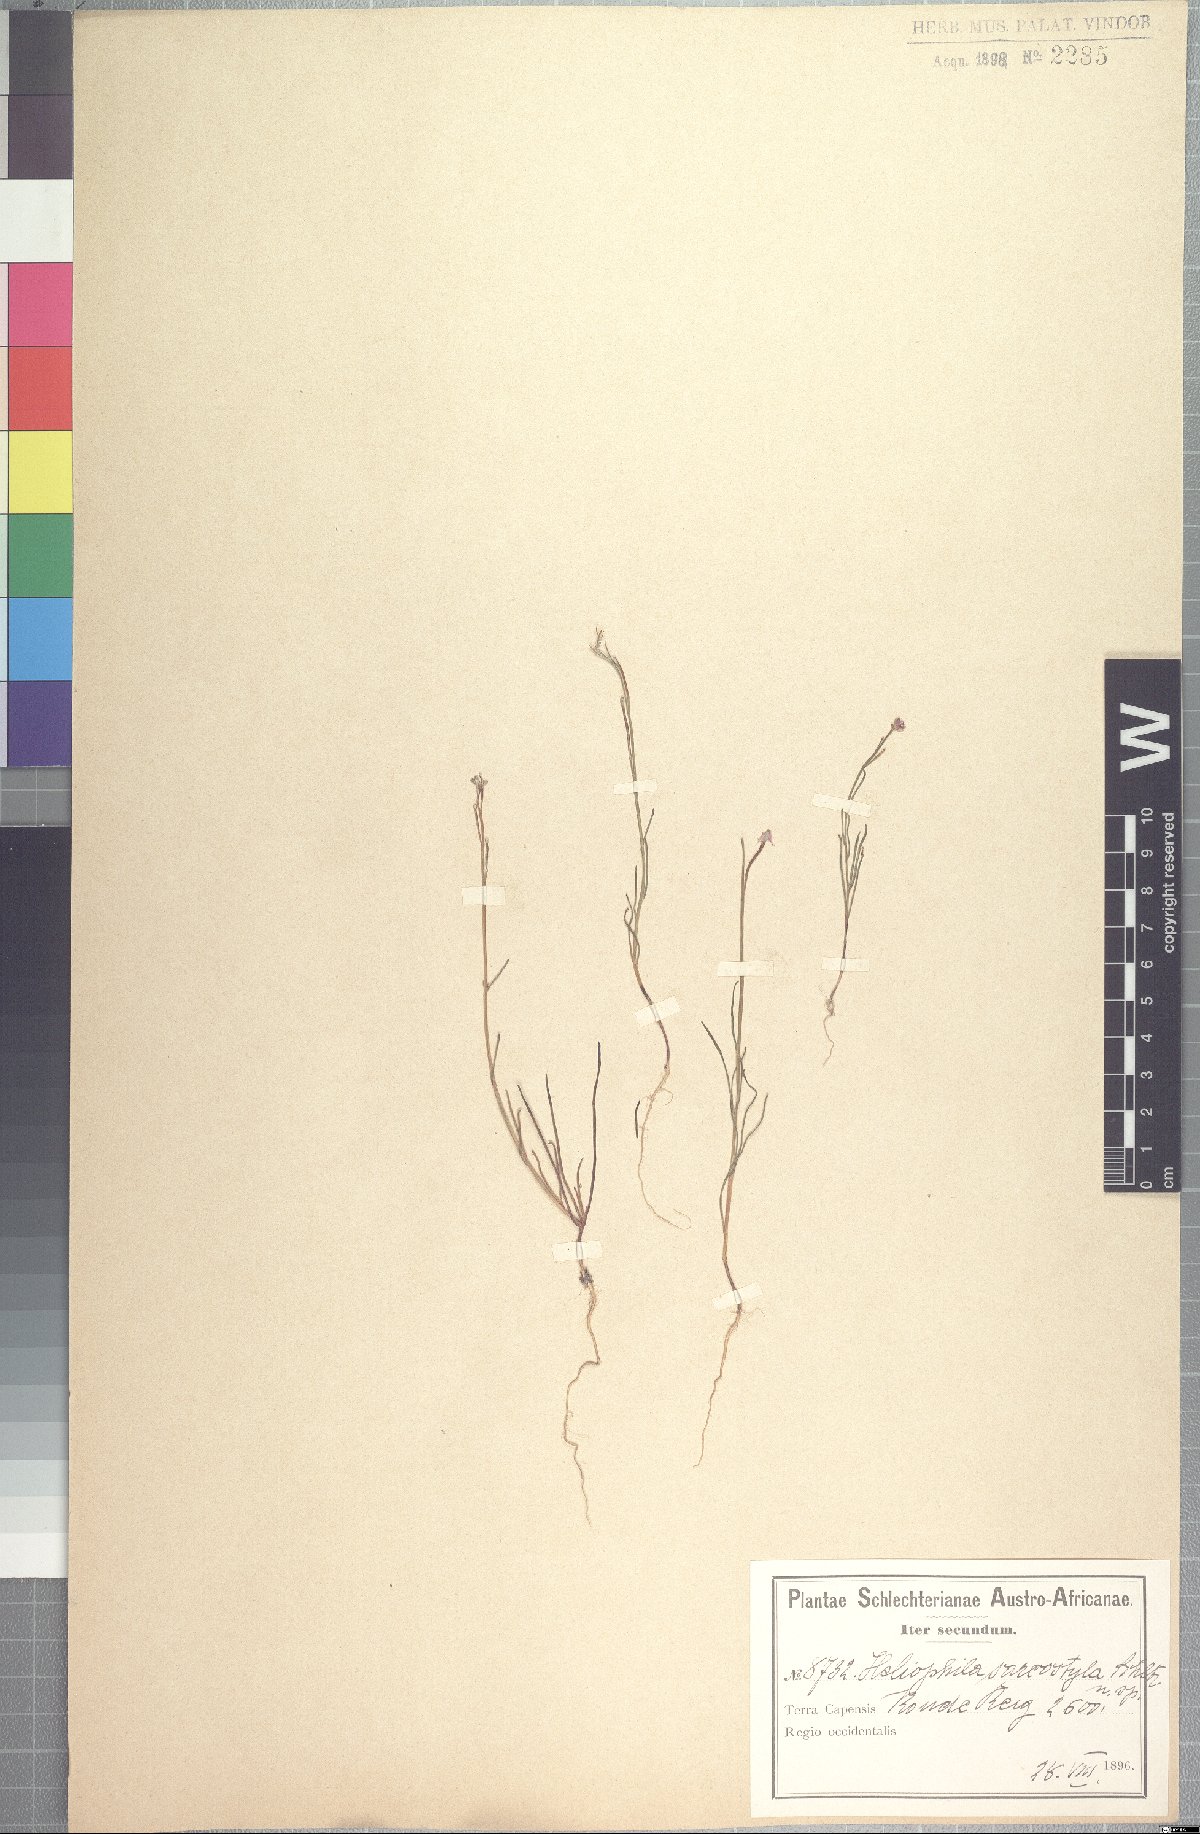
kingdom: Plantae
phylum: Tracheophyta
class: Magnoliopsida
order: Brassicales
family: Brassicaceae
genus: Heliophila
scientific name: Heliophila namaquana
